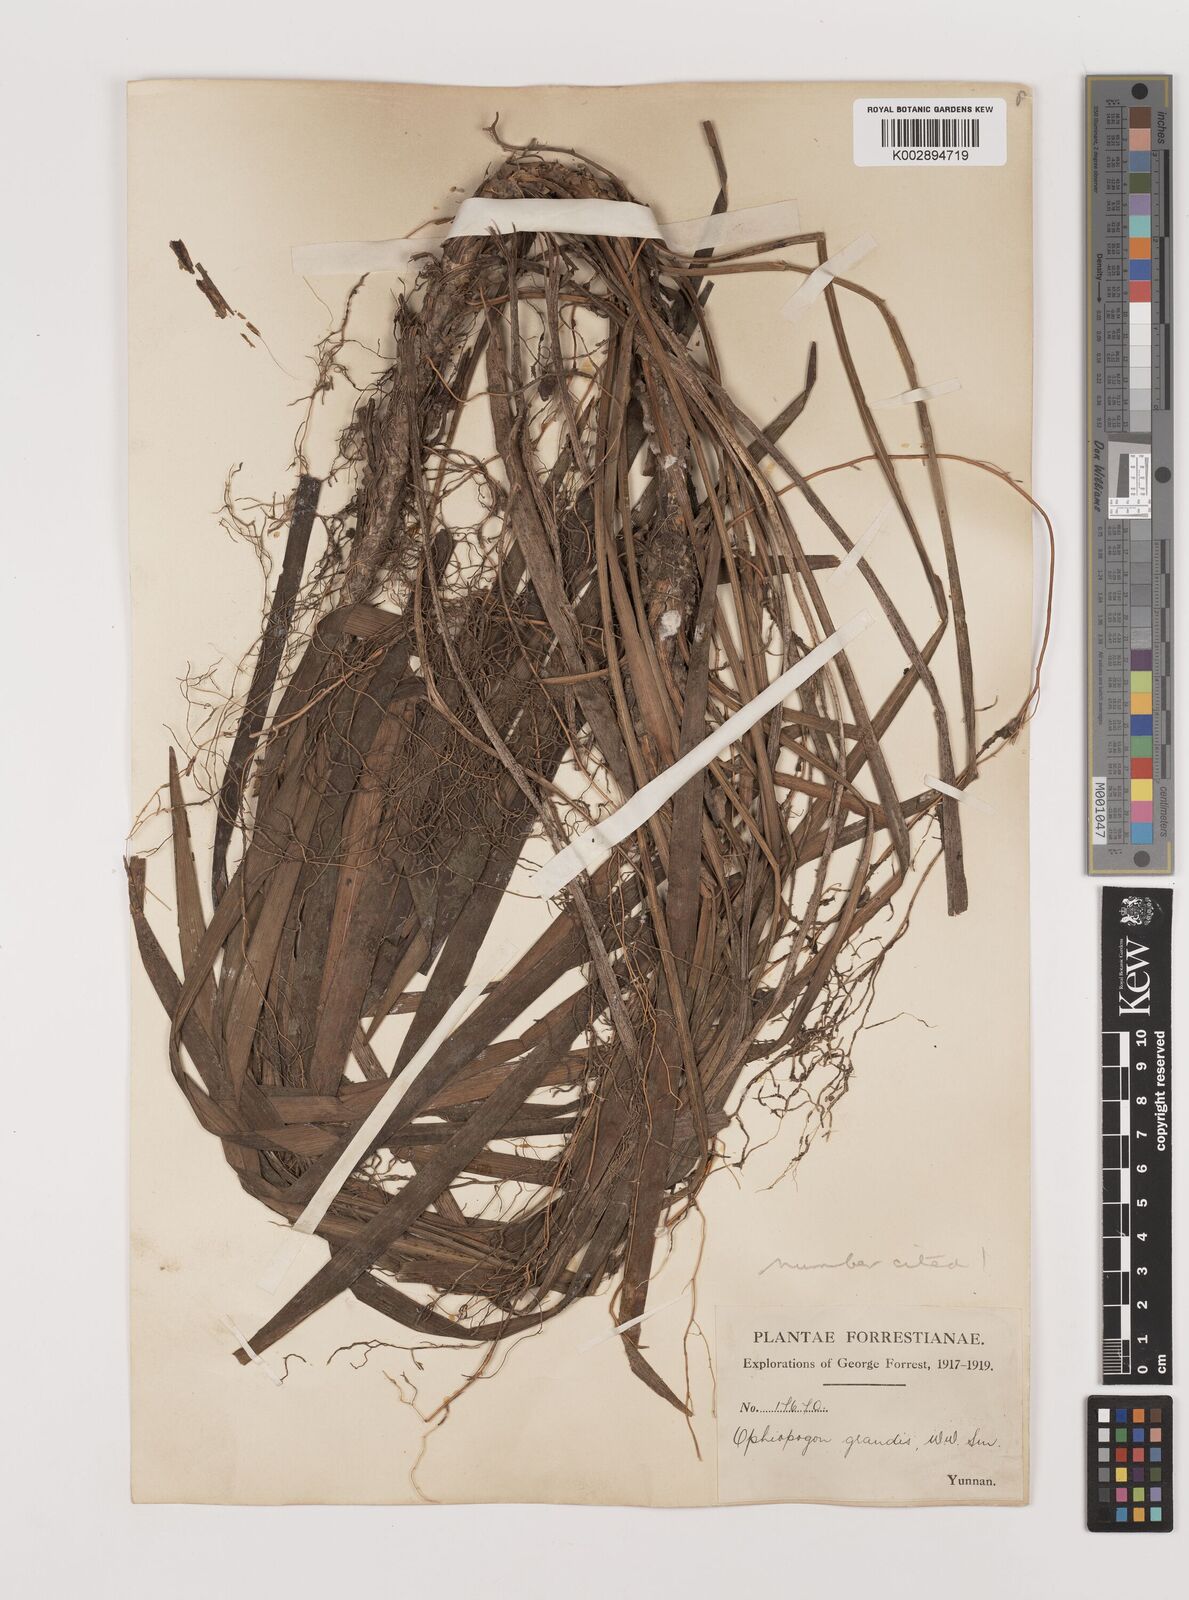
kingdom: Plantae
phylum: Tracheophyta
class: Liliopsida
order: Asparagales
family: Asparagaceae
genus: Ophiopogon
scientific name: Ophiopogon grandis
